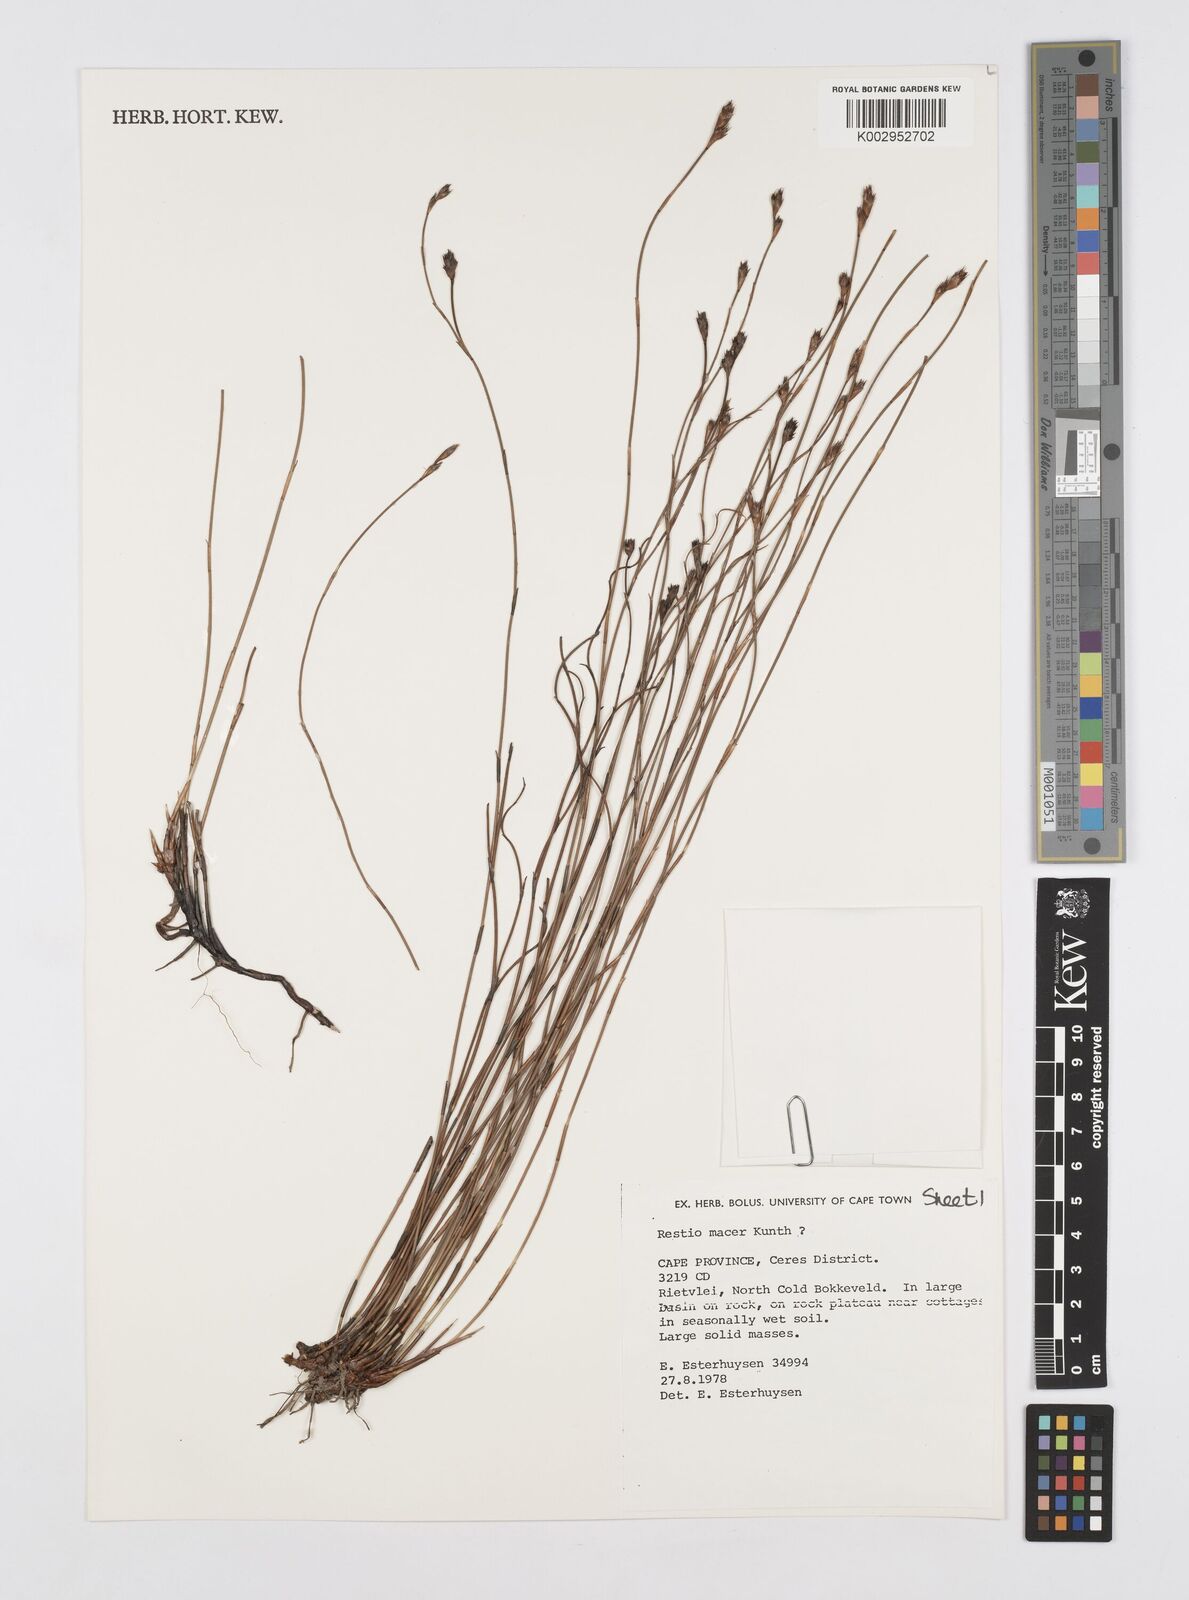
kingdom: Plantae
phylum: Tracheophyta
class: Liliopsida
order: Poales
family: Restionaceae
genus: Restio
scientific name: Restio macer
